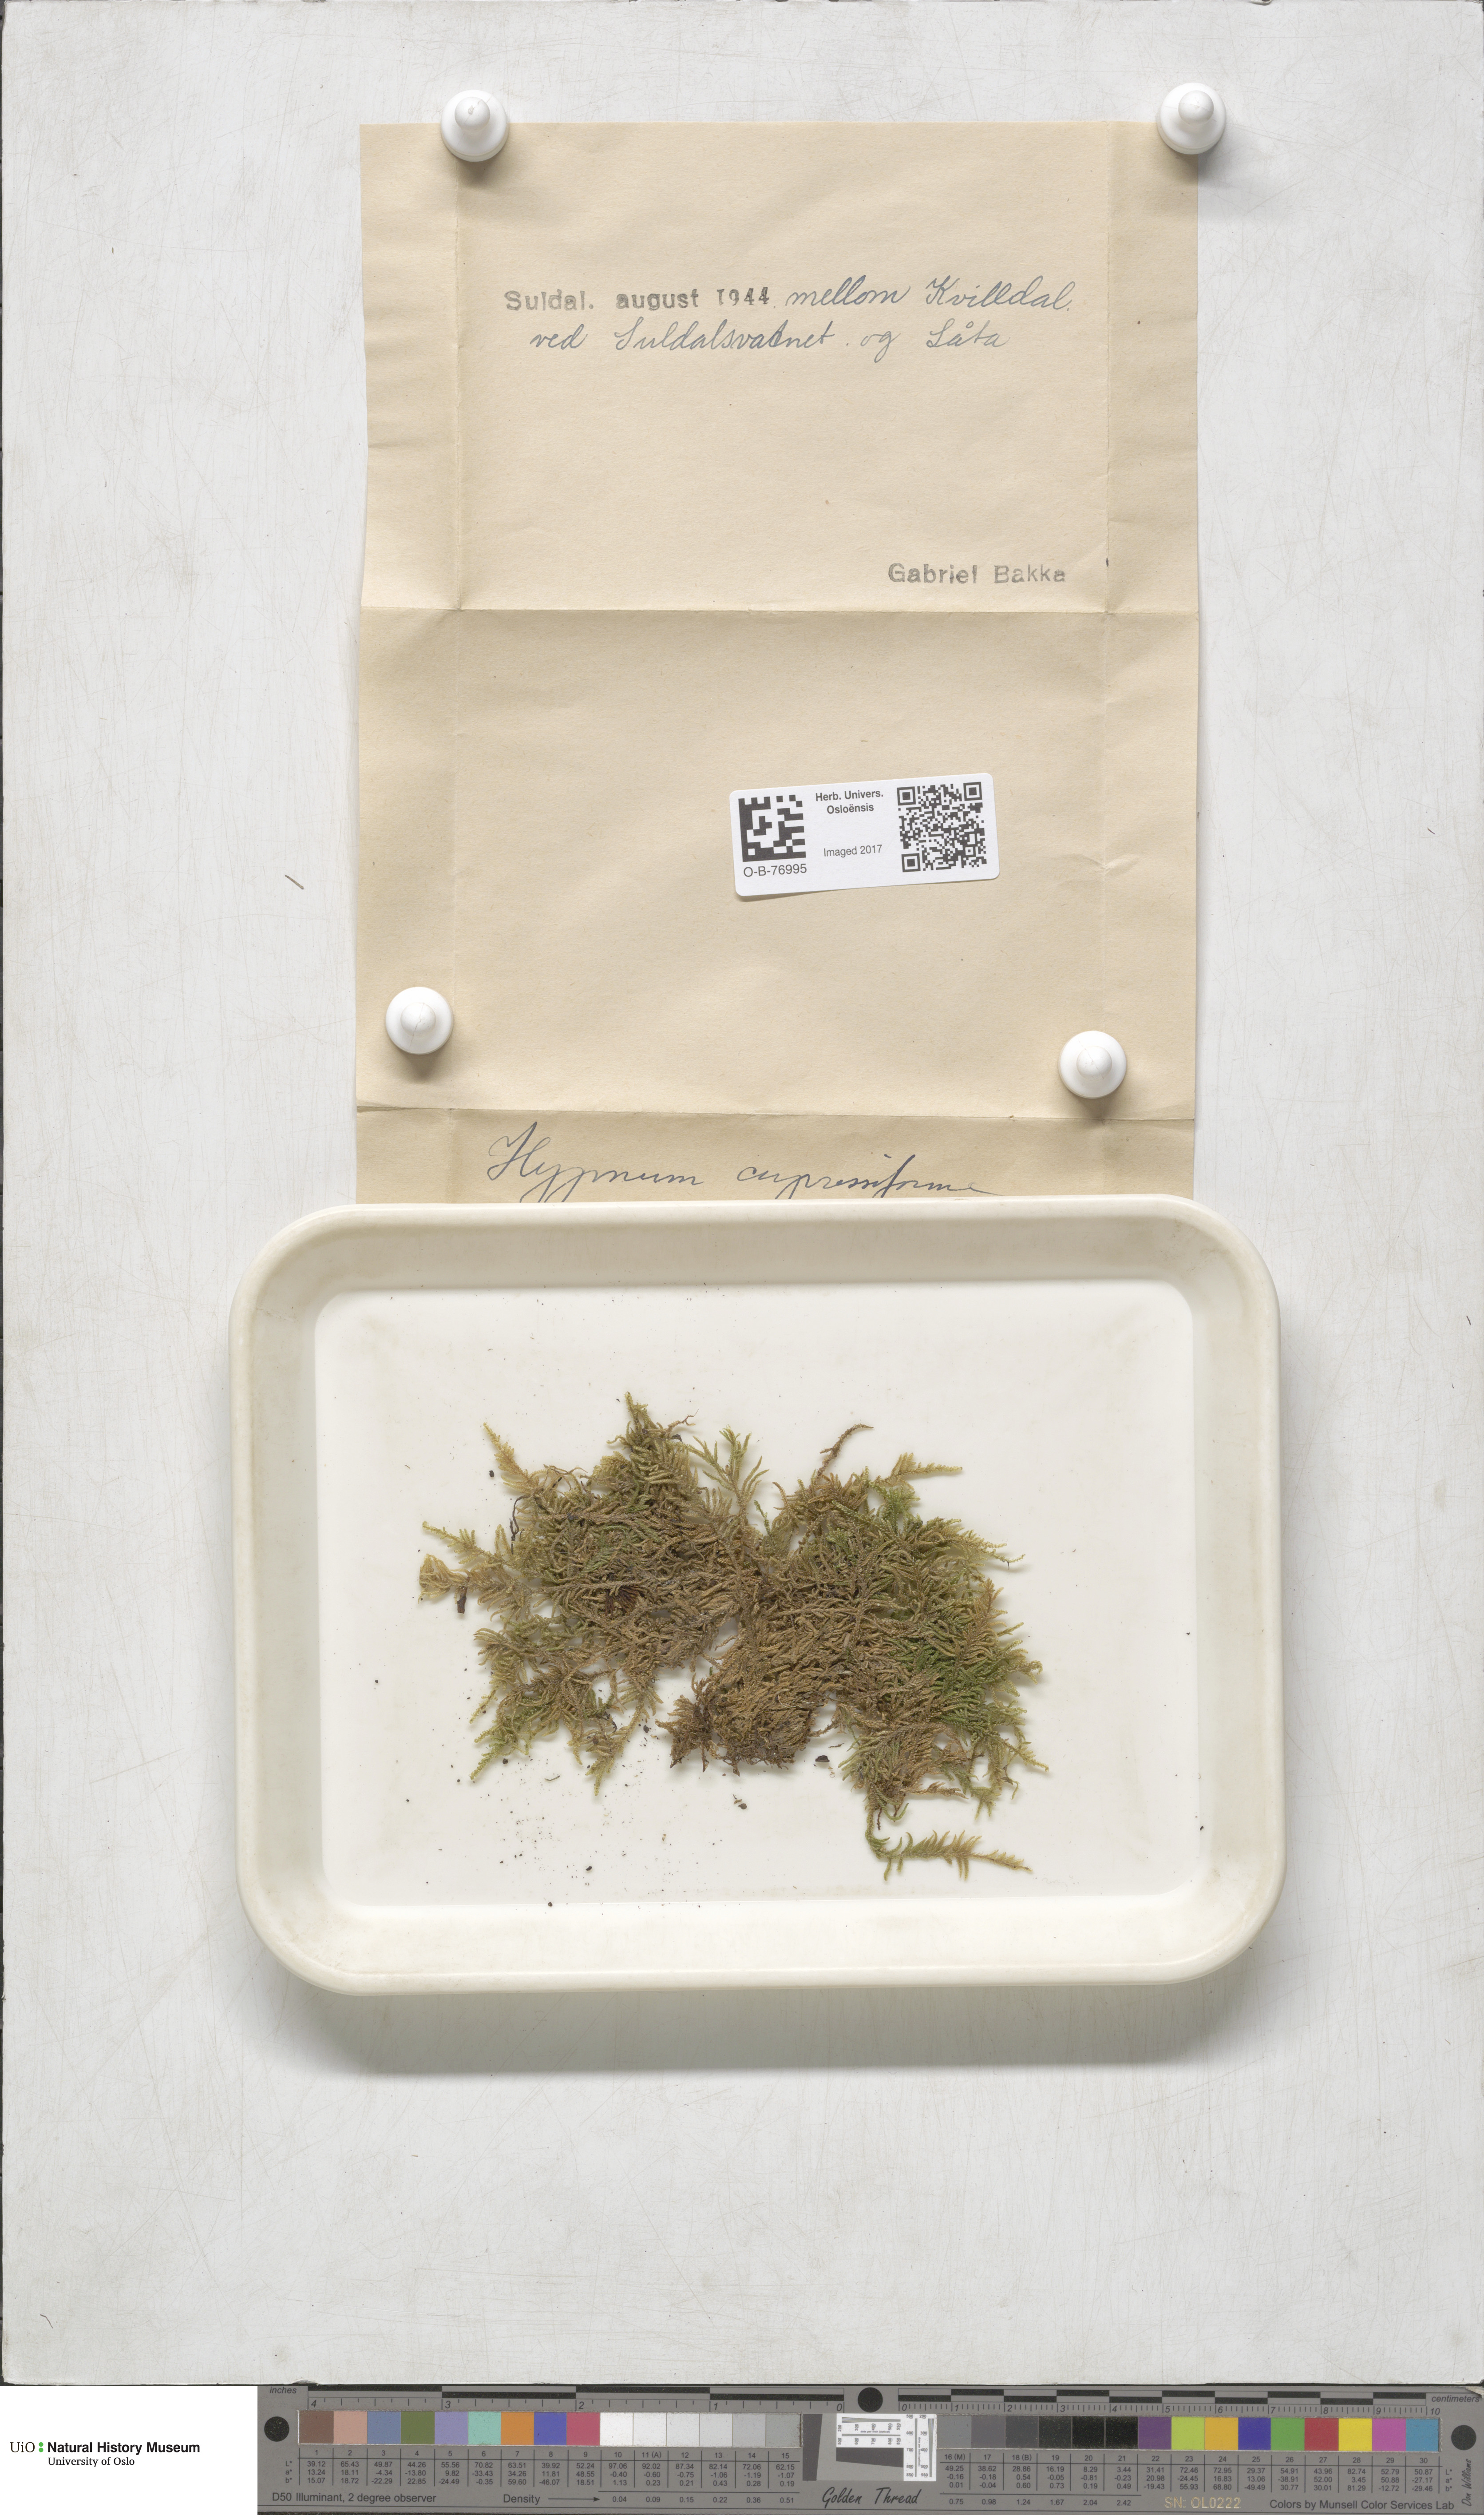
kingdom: Plantae
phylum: Bryophyta
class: Bryopsida
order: Hypnales
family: Hypnaceae
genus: Hypnum
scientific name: Hypnum cupressiforme
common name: Cypress-leaved plait-moss
